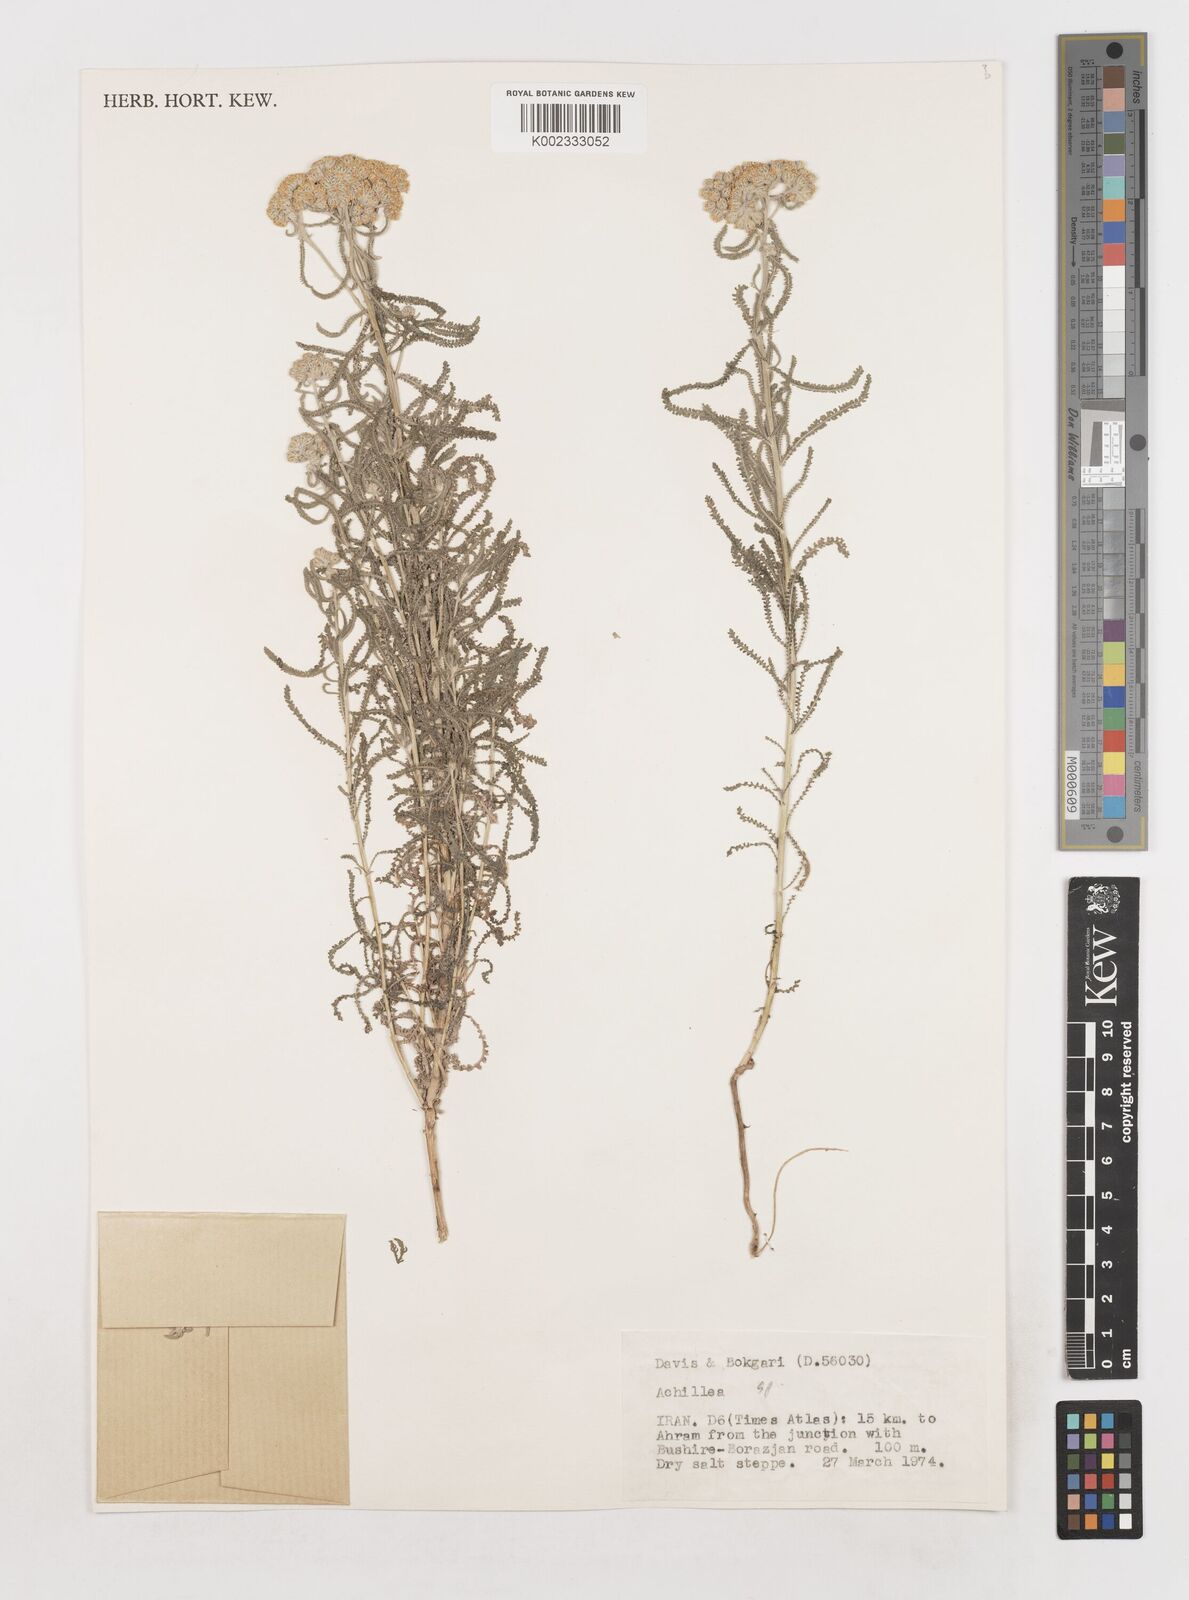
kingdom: Plantae
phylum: Tracheophyta
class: Magnoliopsida
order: Asterales
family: Asteraceae
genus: Achillea
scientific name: Achillea
